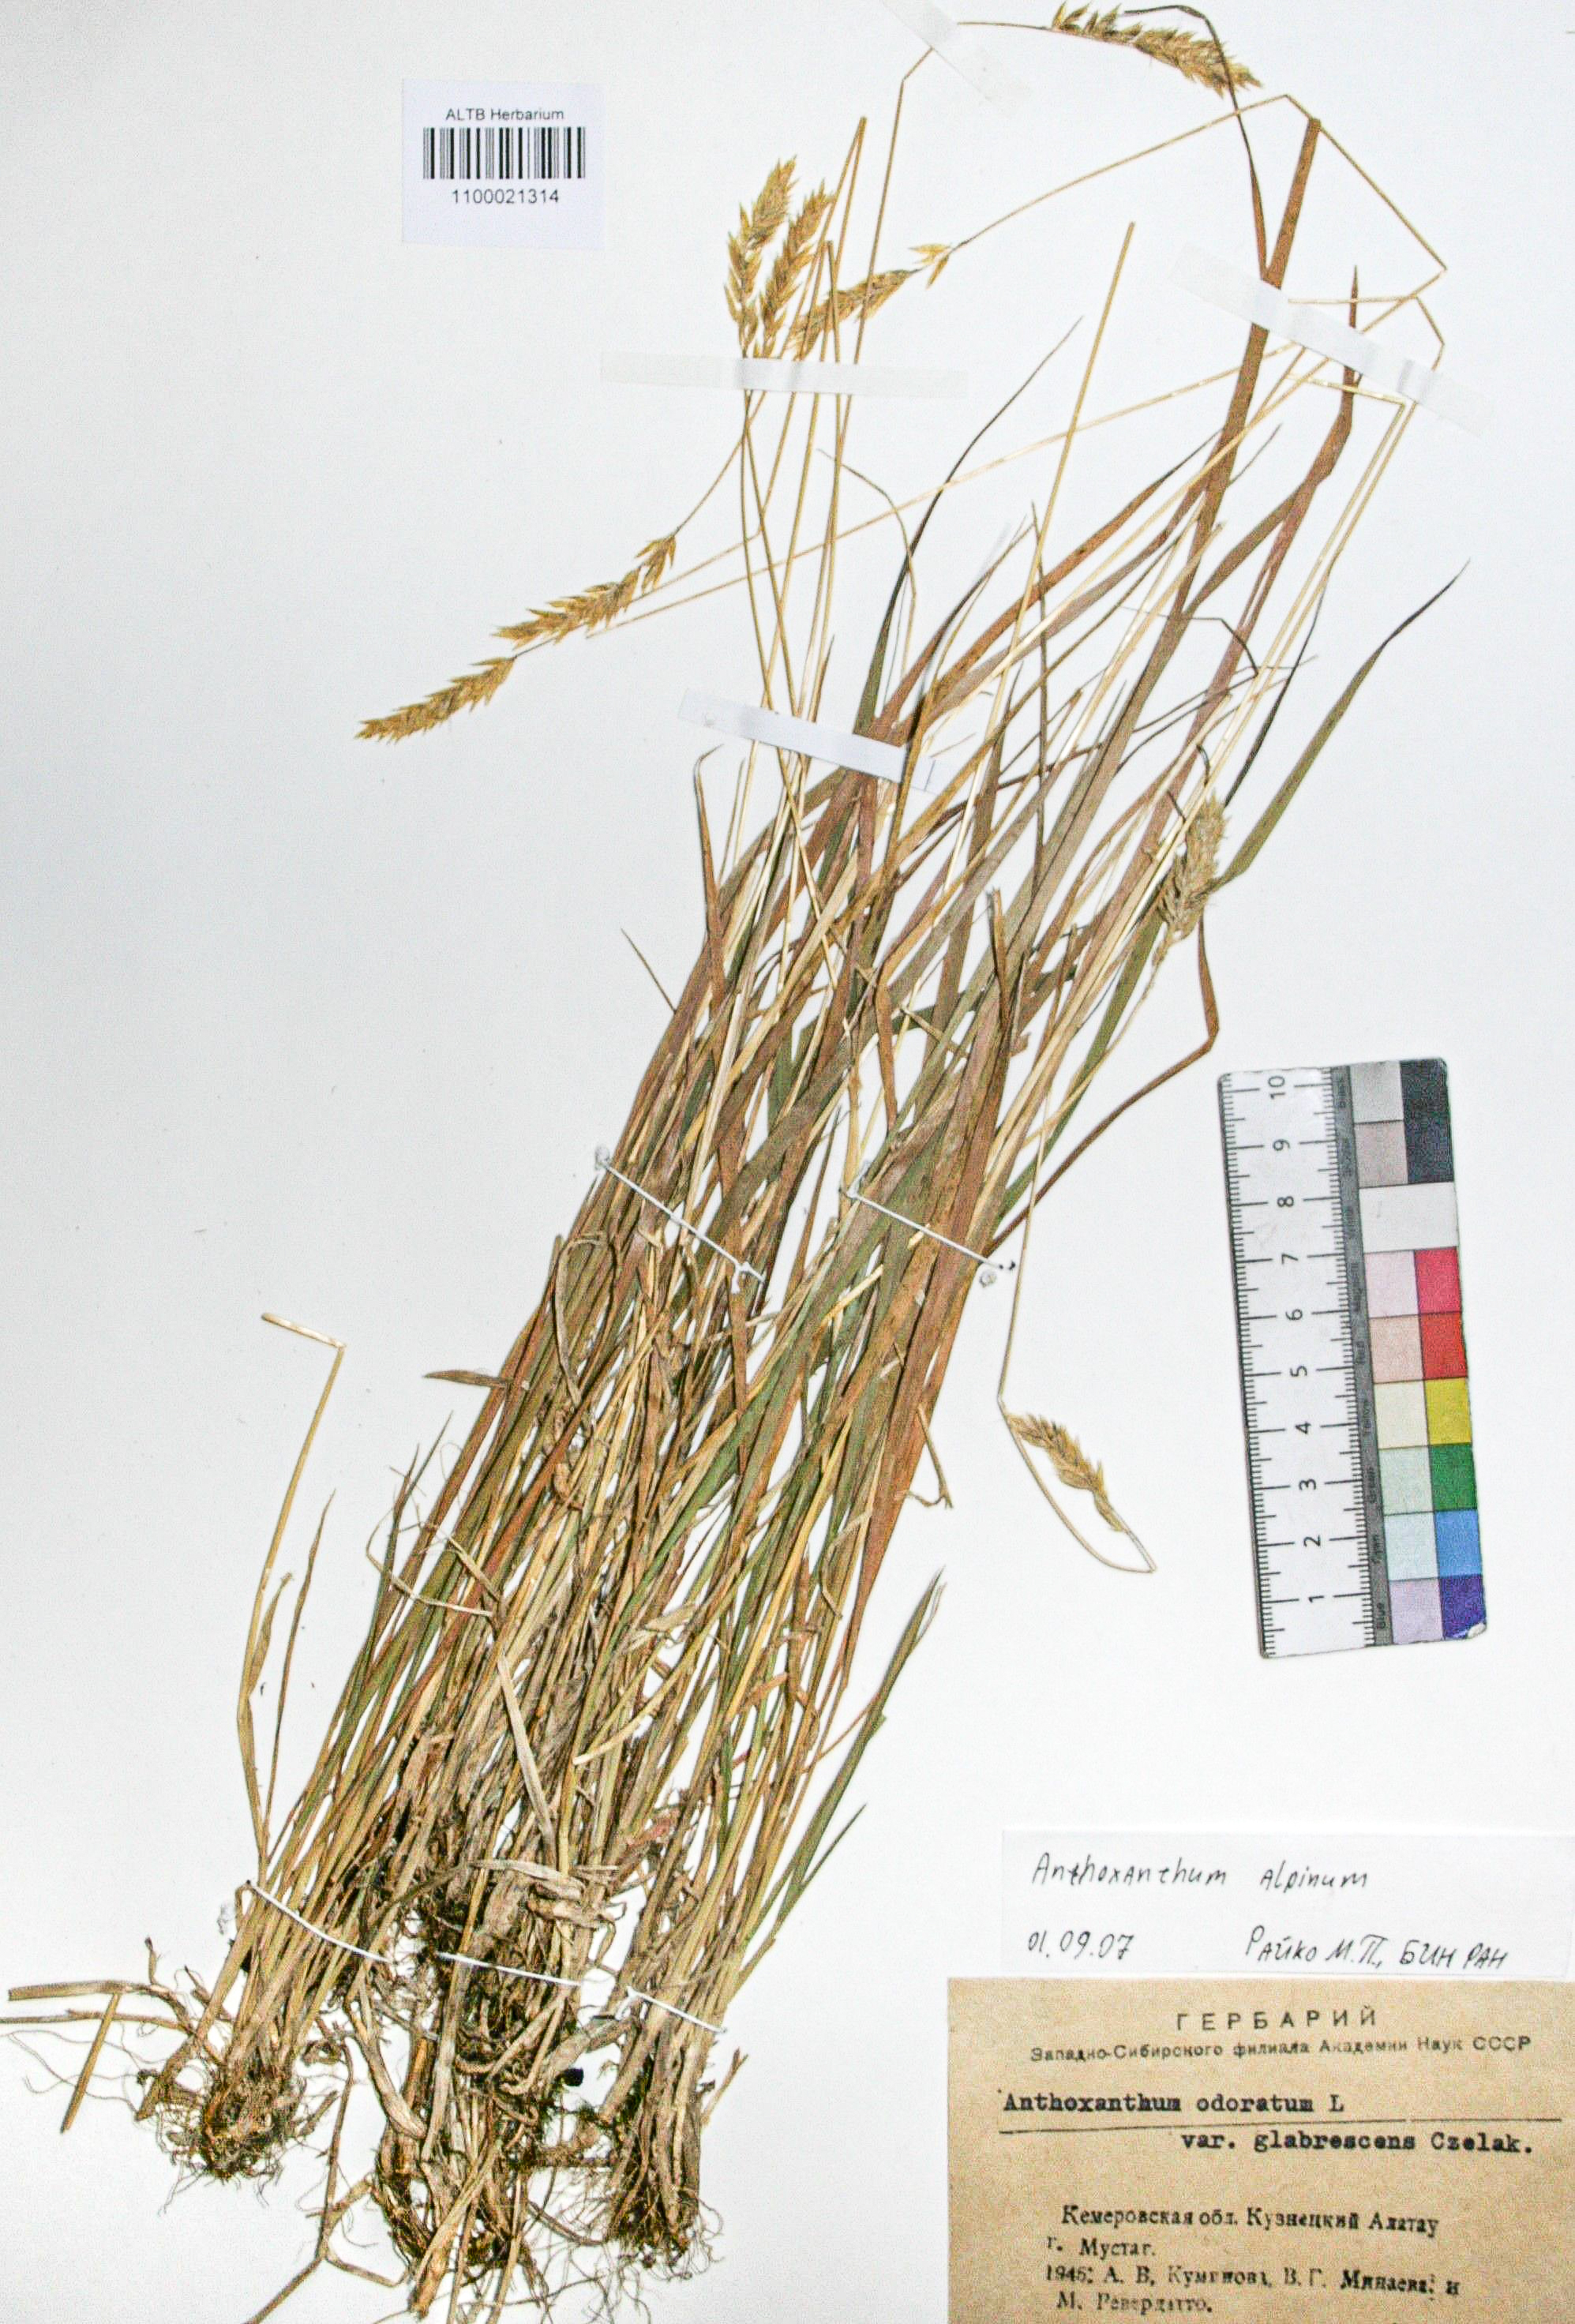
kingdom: Plantae
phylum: Tracheophyta
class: Liliopsida
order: Poales
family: Poaceae
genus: Anthoxanthum
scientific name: Anthoxanthum nipponicum
